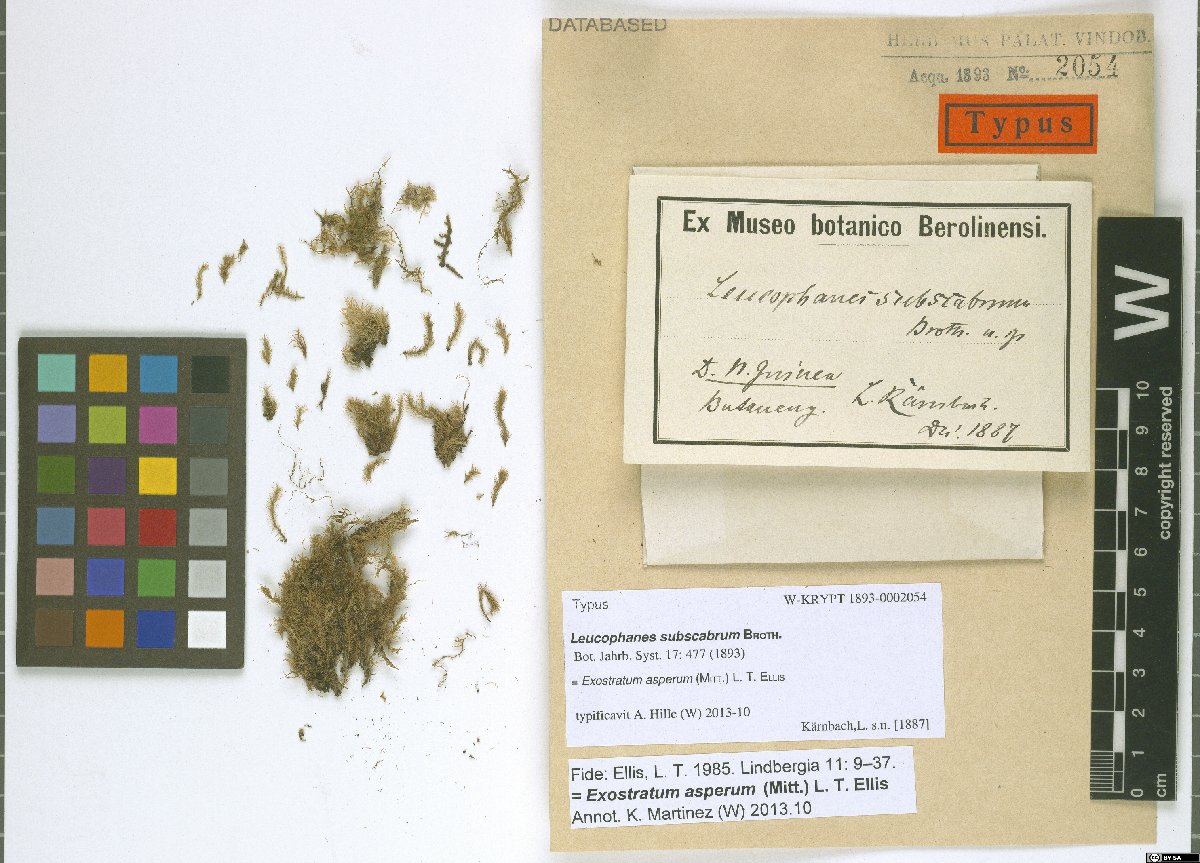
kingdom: Plantae
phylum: Bryophyta
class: Bryopsida
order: Dicranales
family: Calymperaceae
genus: Exostratum
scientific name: Exostratum asperum
